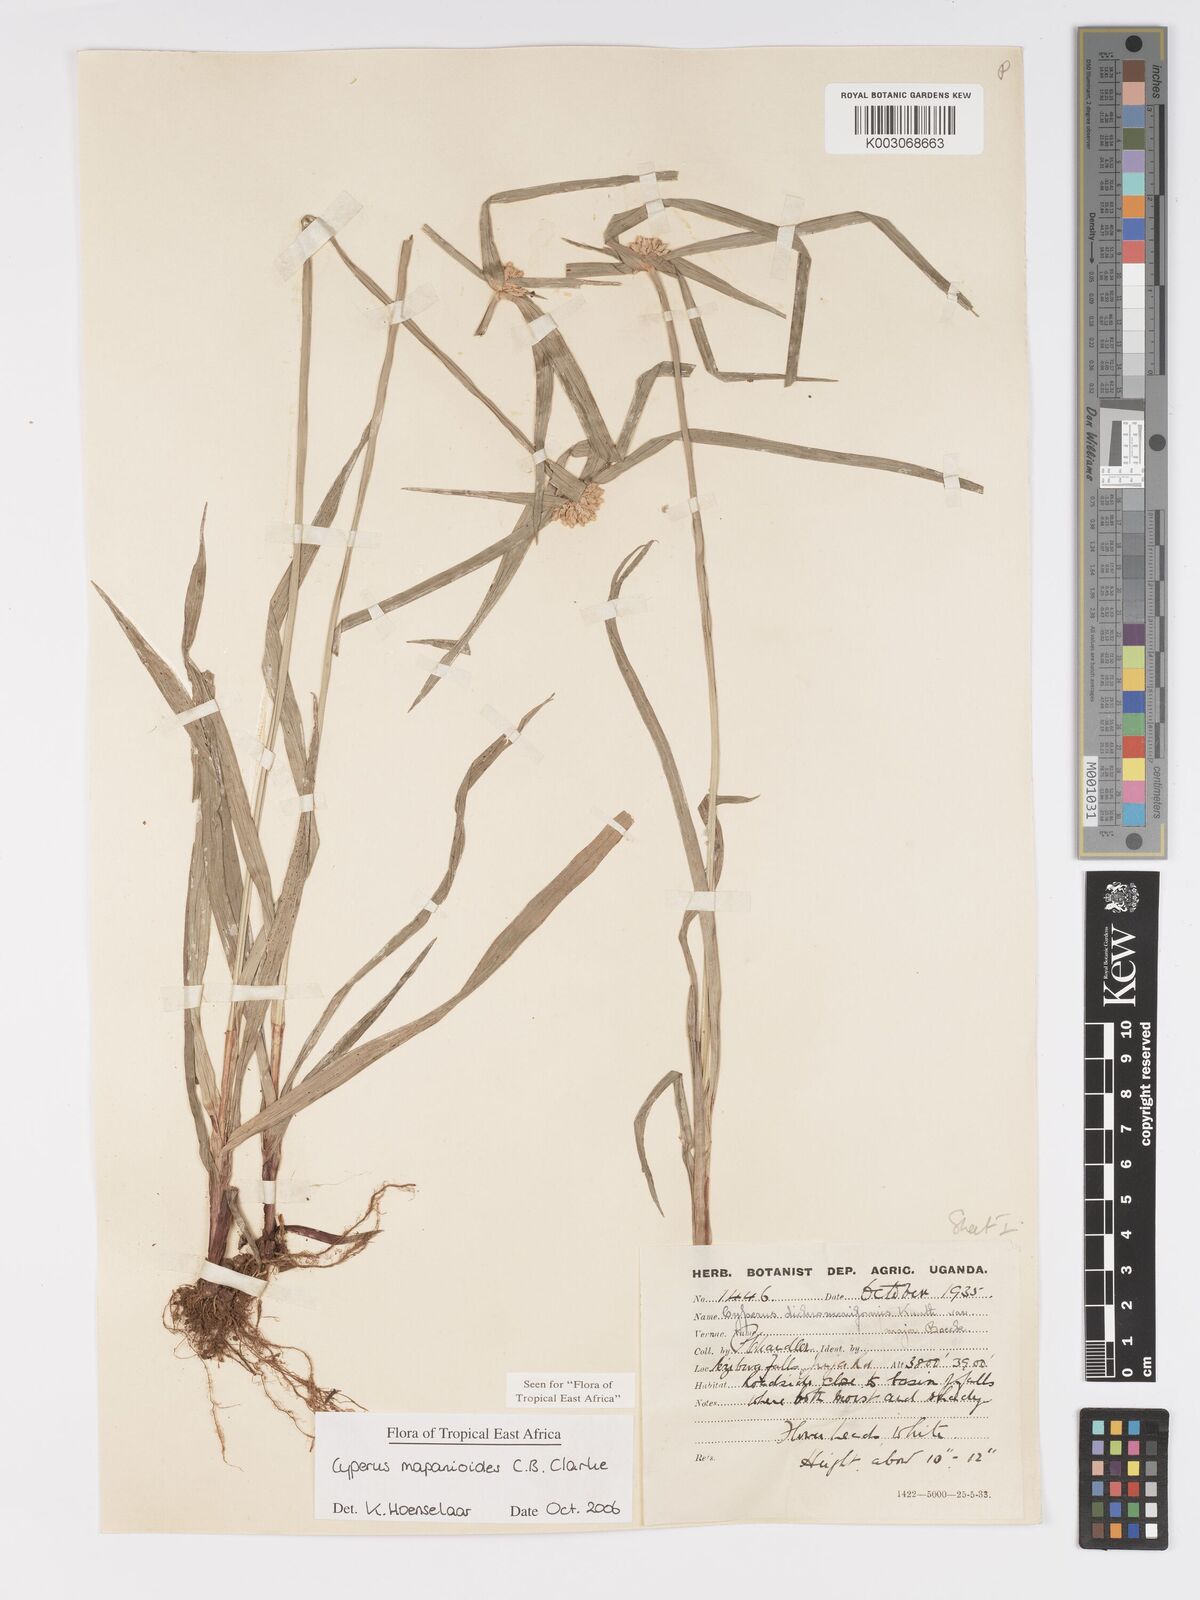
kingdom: Plantae
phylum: Tracheophyta
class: Liliopsida
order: Poales
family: Cyperaceae
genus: Cyperus
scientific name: Cyperus mapanioides
